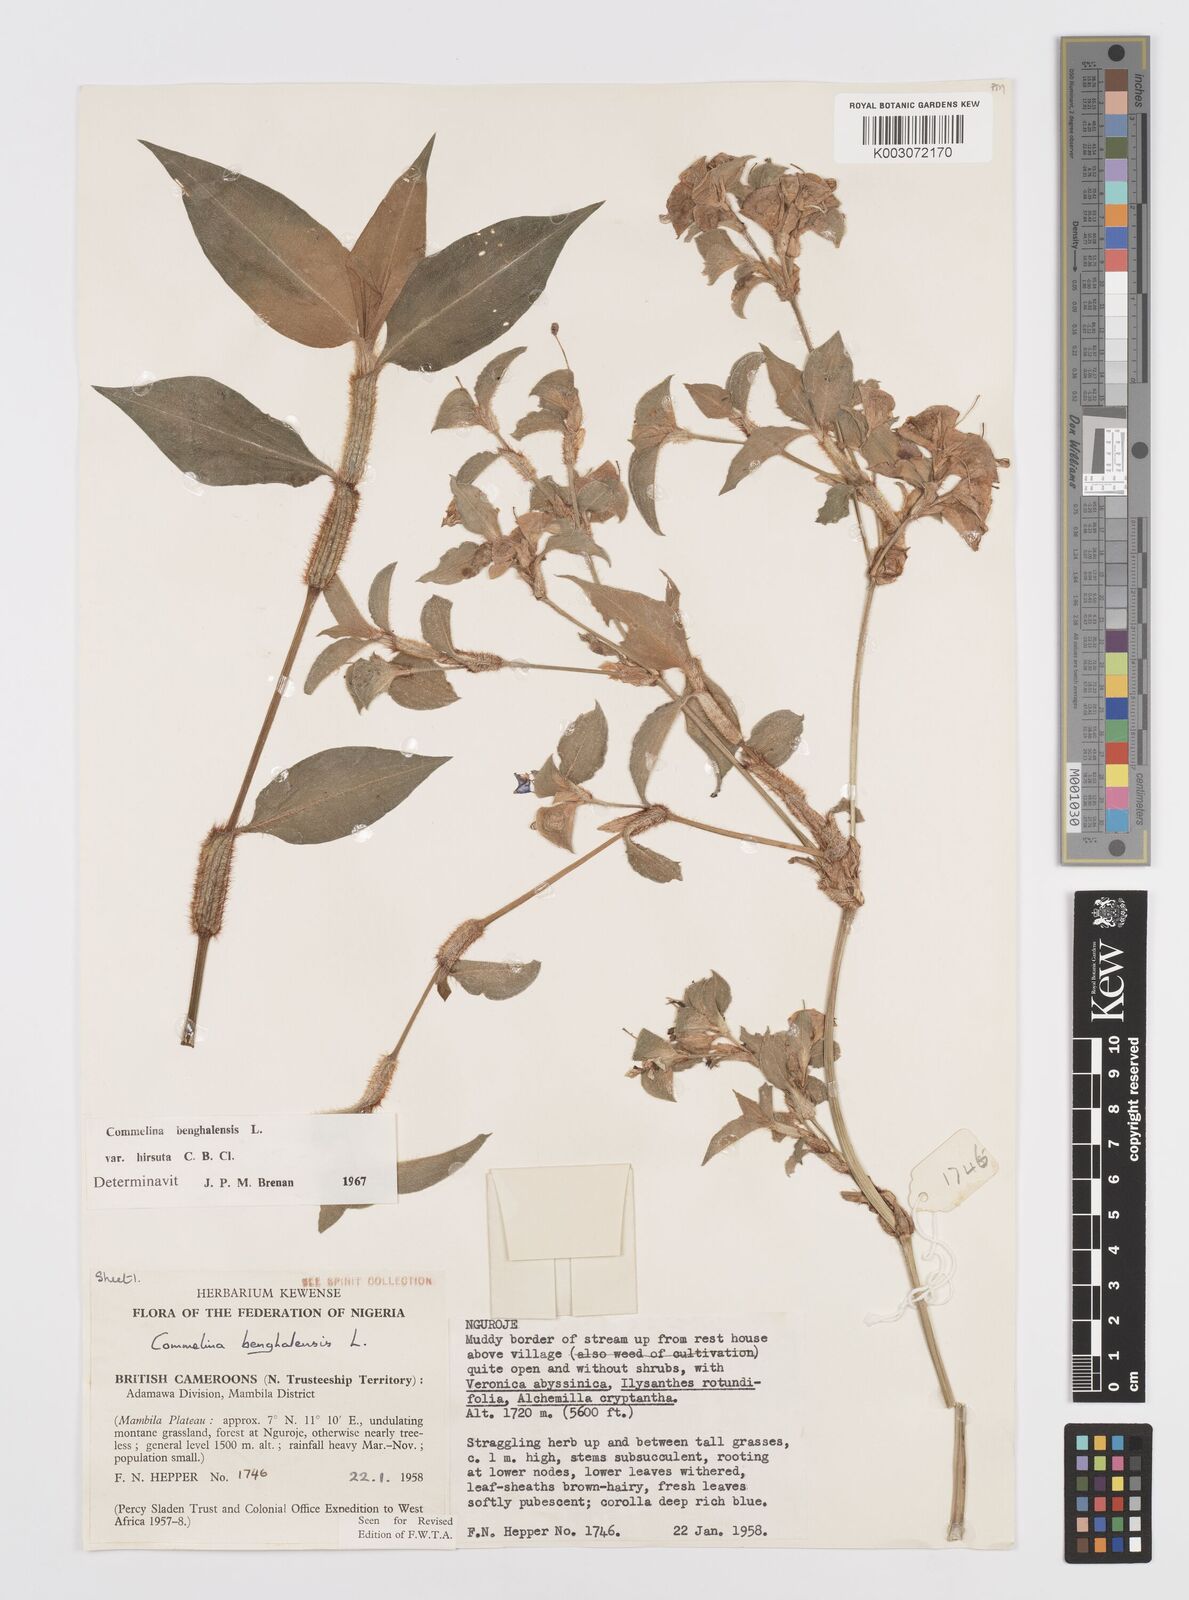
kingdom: Plantae
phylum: Tracheophyta
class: Liliopsida
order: Commelinales
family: Commelinaceae
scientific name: Commelinaceae
